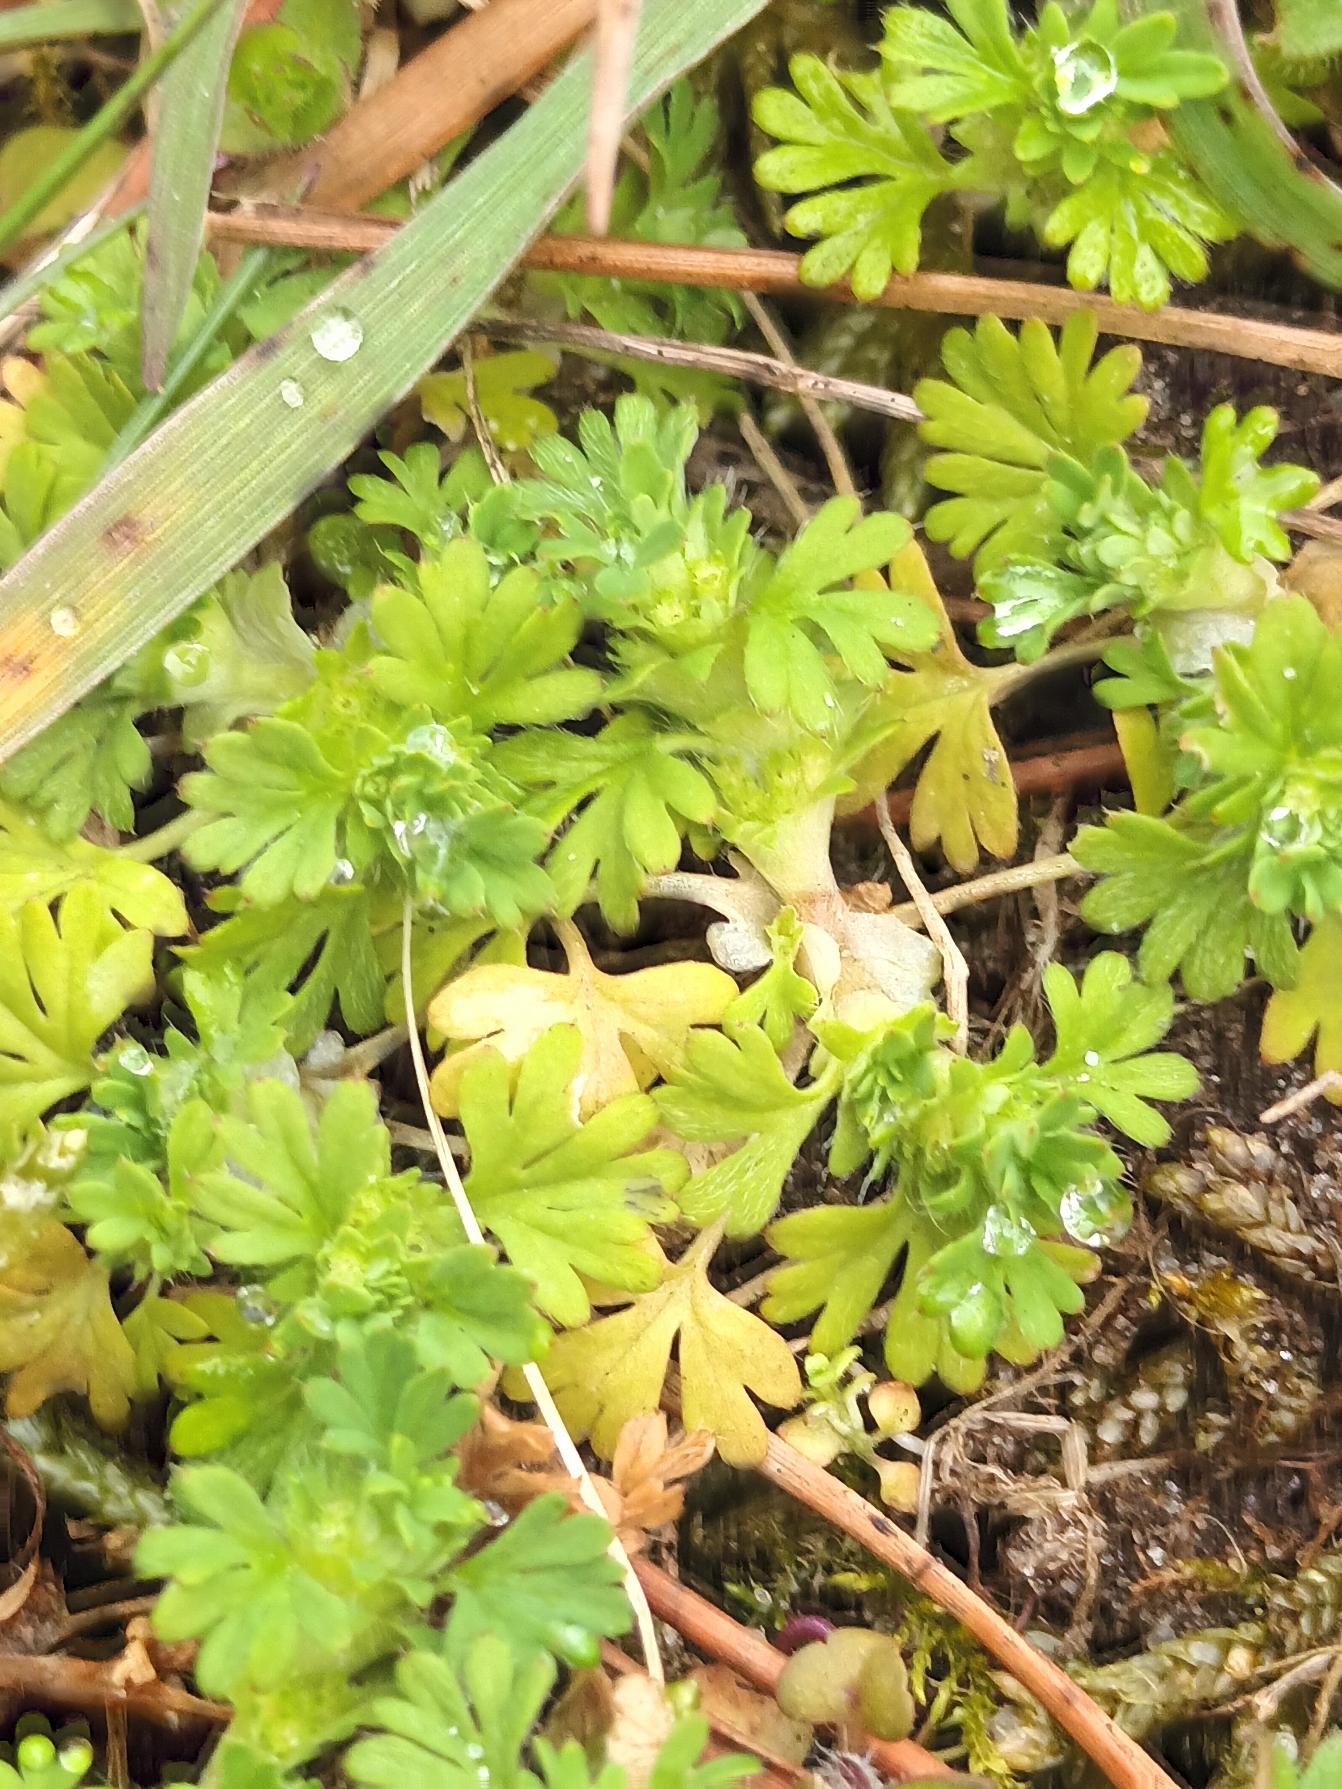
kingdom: Plantae
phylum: Tracheophyta
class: Magnoliopsida
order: Rosales
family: Rosaceae
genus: Aphanes
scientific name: Aphanes australis
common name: Småfrugtet dværgløvefod
